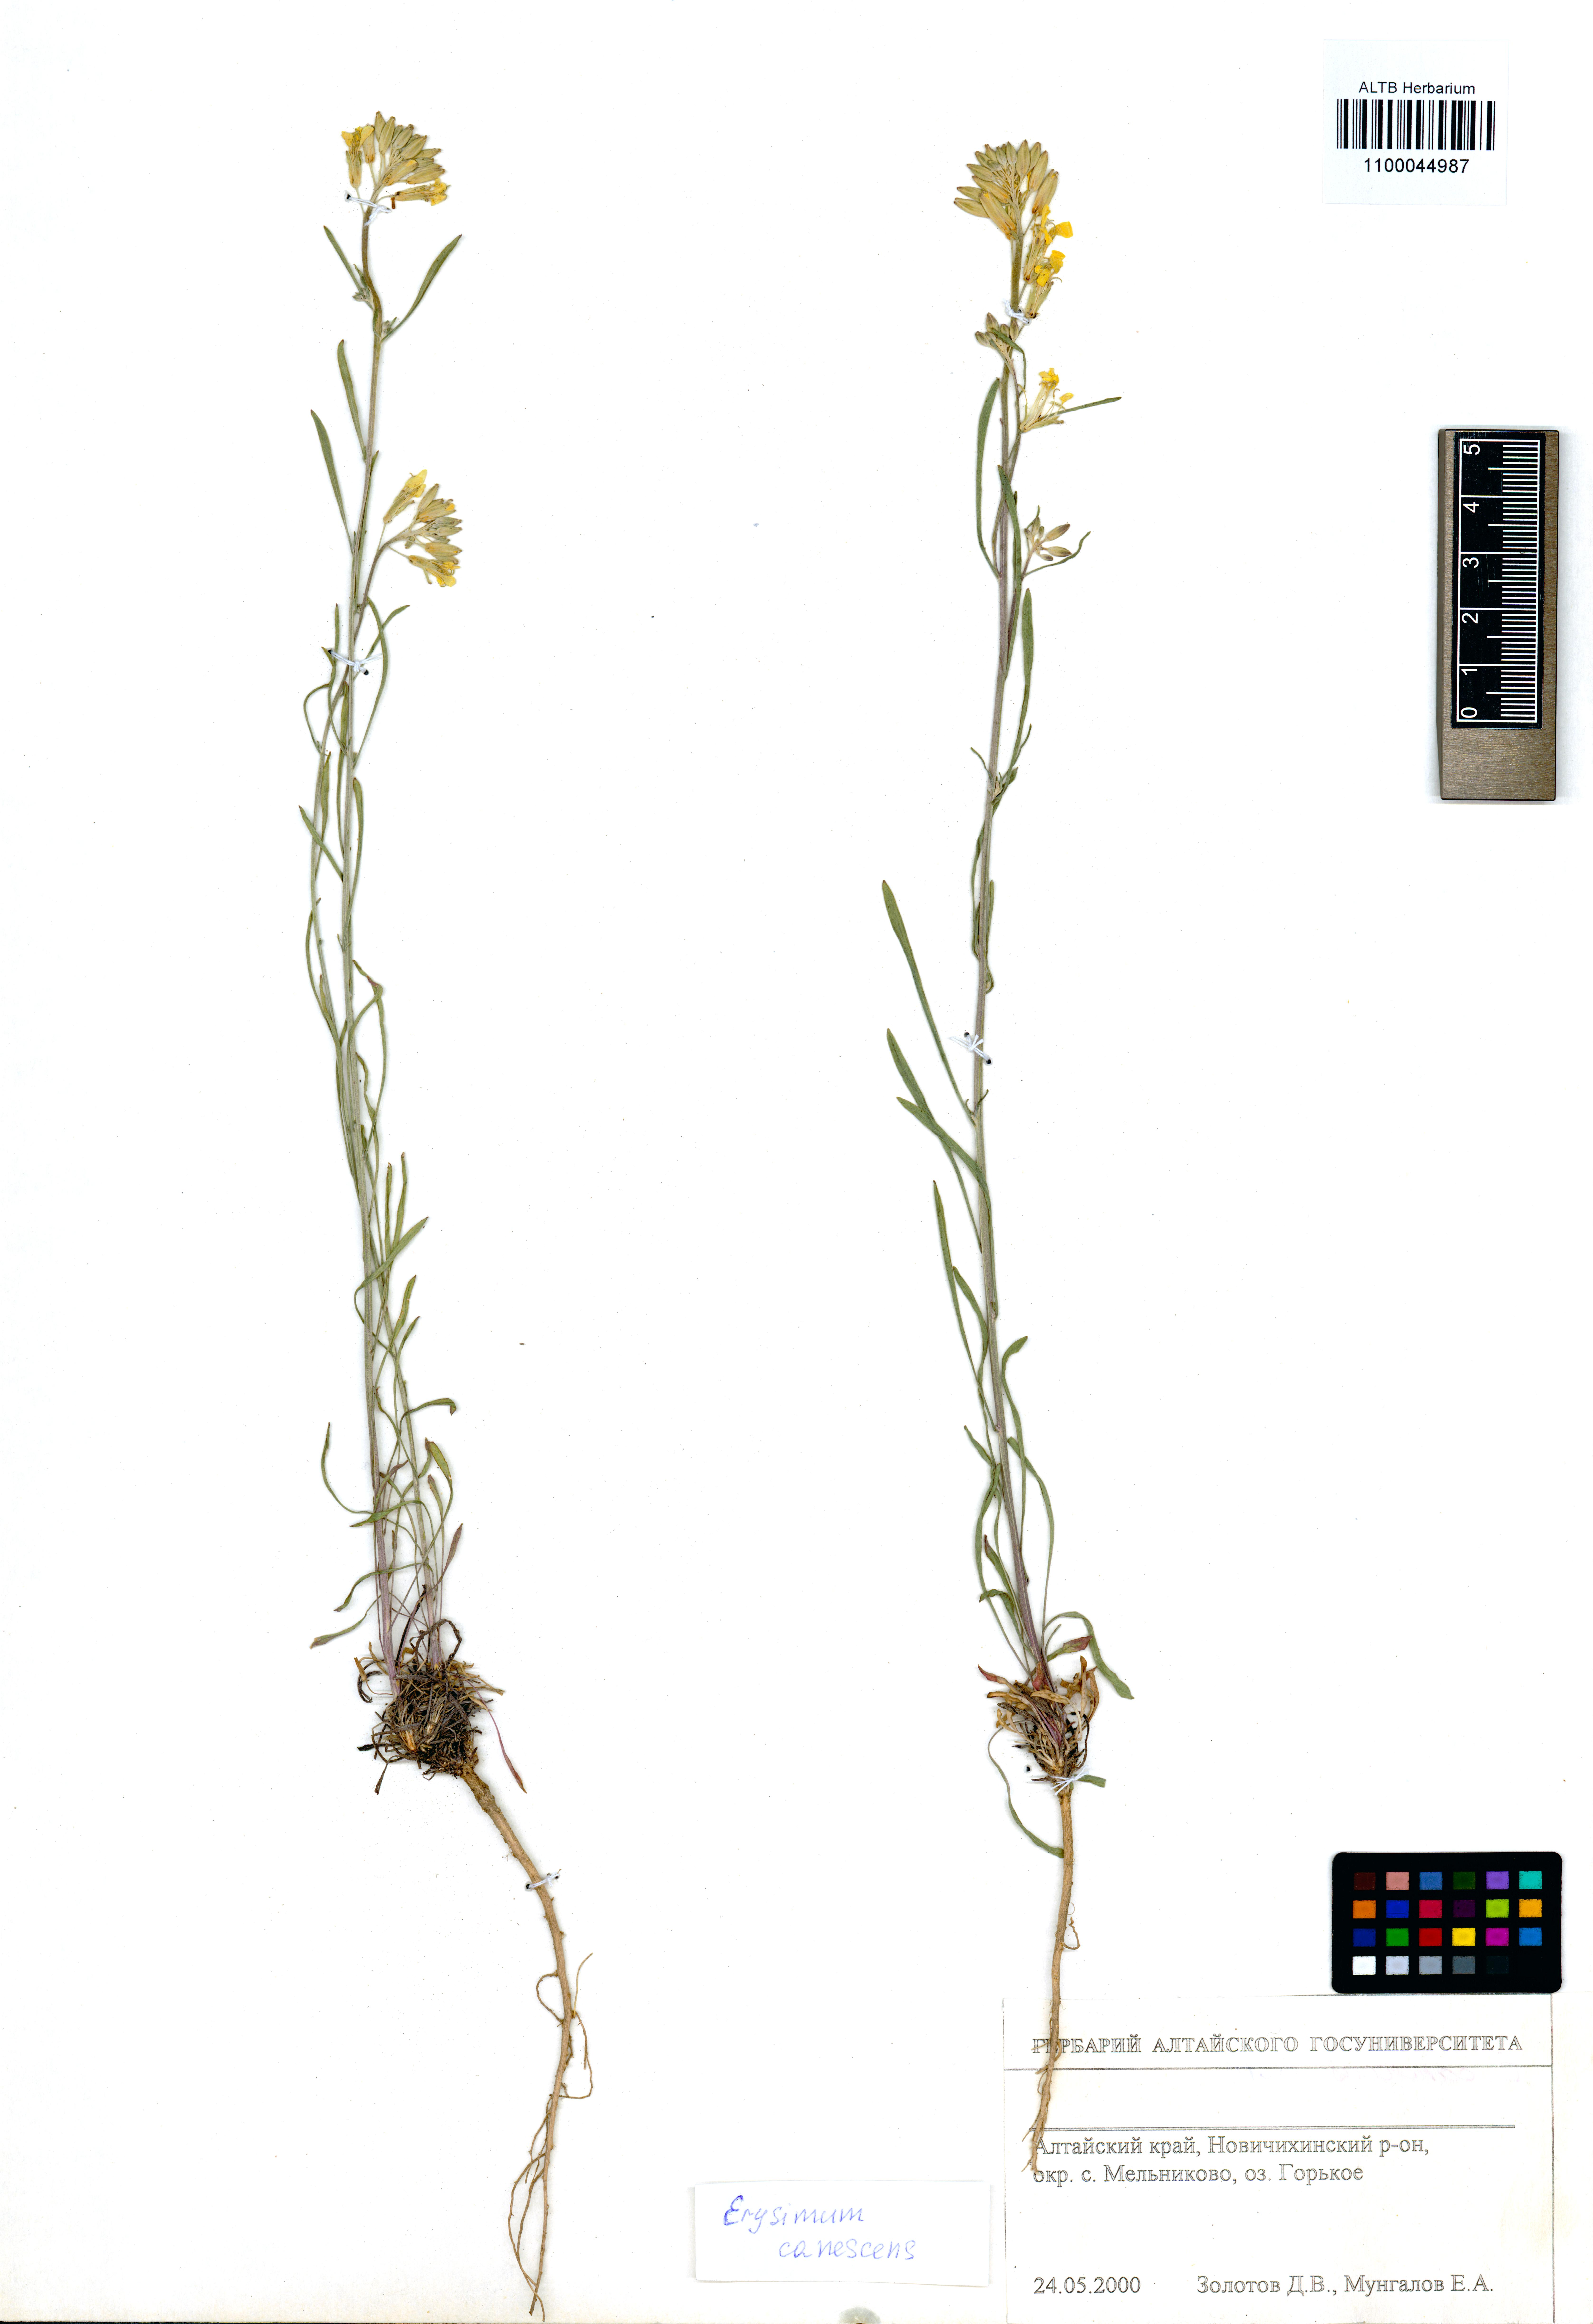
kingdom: Plantae
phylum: Tracheophyta
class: Magnoliopsida
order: Brassicales
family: Brassicaceae
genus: Erysimum
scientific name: Erysimum canescens
